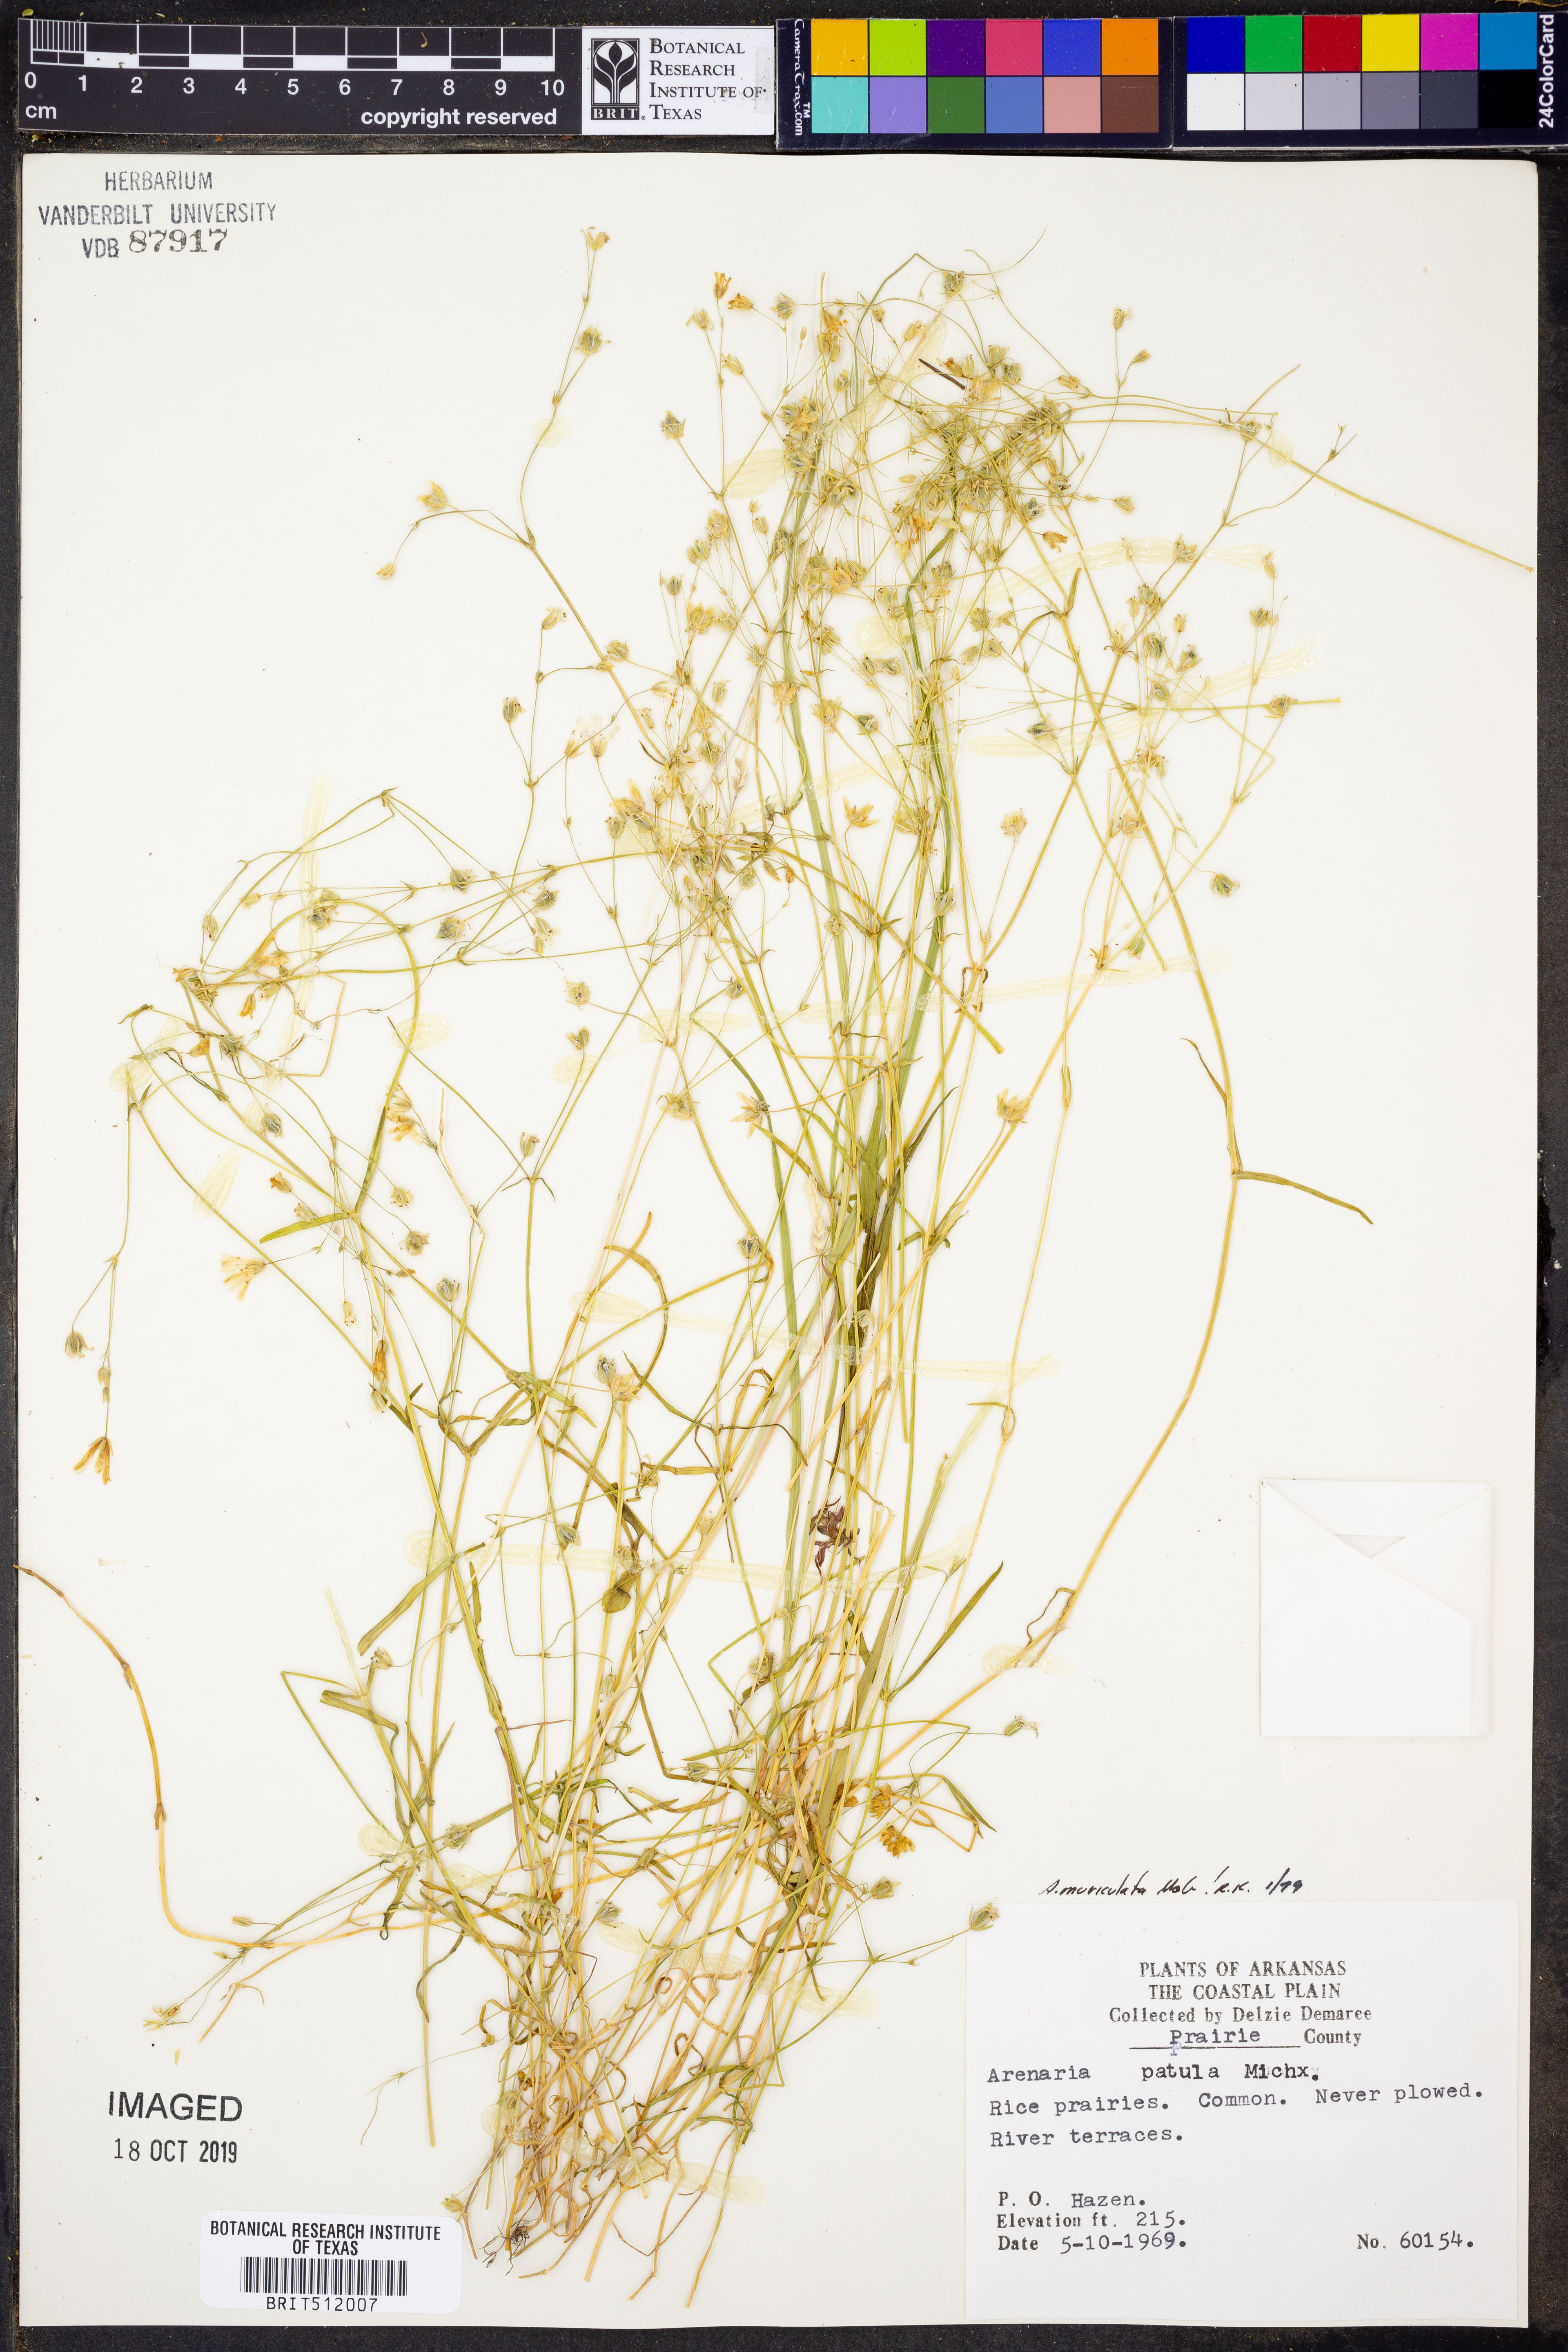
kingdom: Plantae
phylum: Tracheophyta
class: Magnoliopsida
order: Caryophyllales
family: Caryophyllaceae
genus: Mononeuria
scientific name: Mononeuria muscorum
